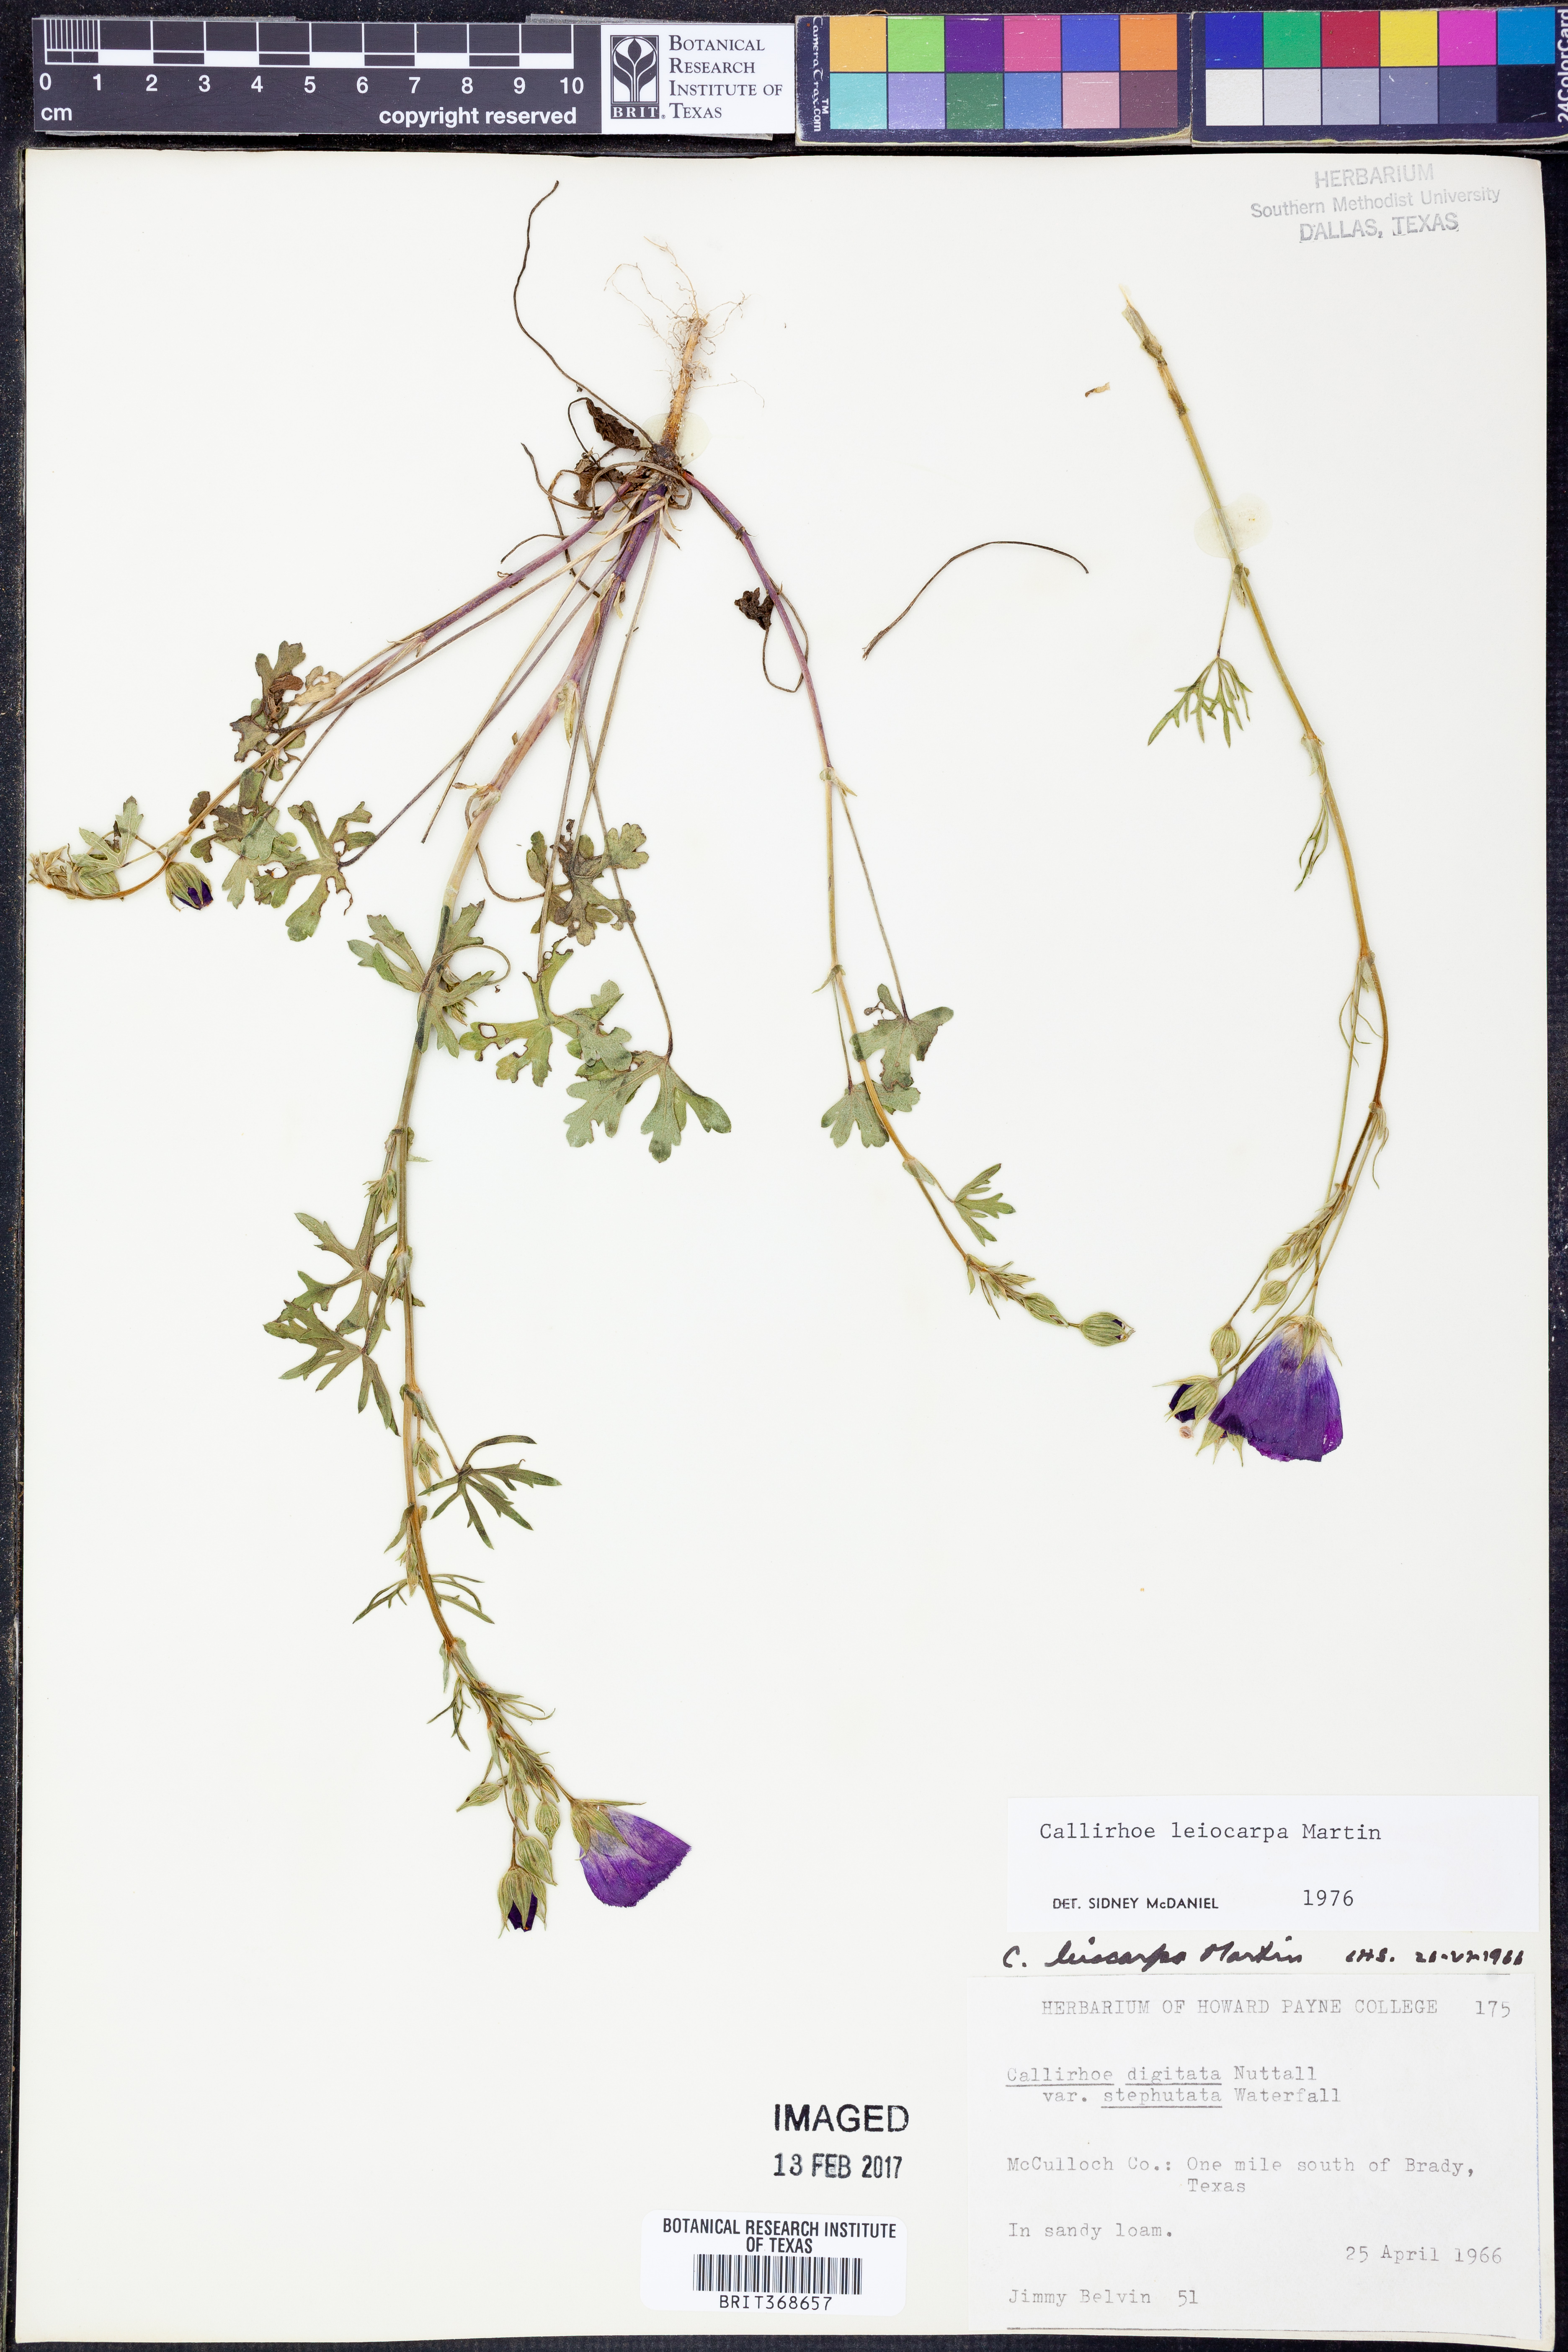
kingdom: Plantae
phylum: Tracheophyta
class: Magnoliopsida
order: Malvales
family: Malvaceae
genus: Callirhoe
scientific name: Callirhoe leiocarpa
